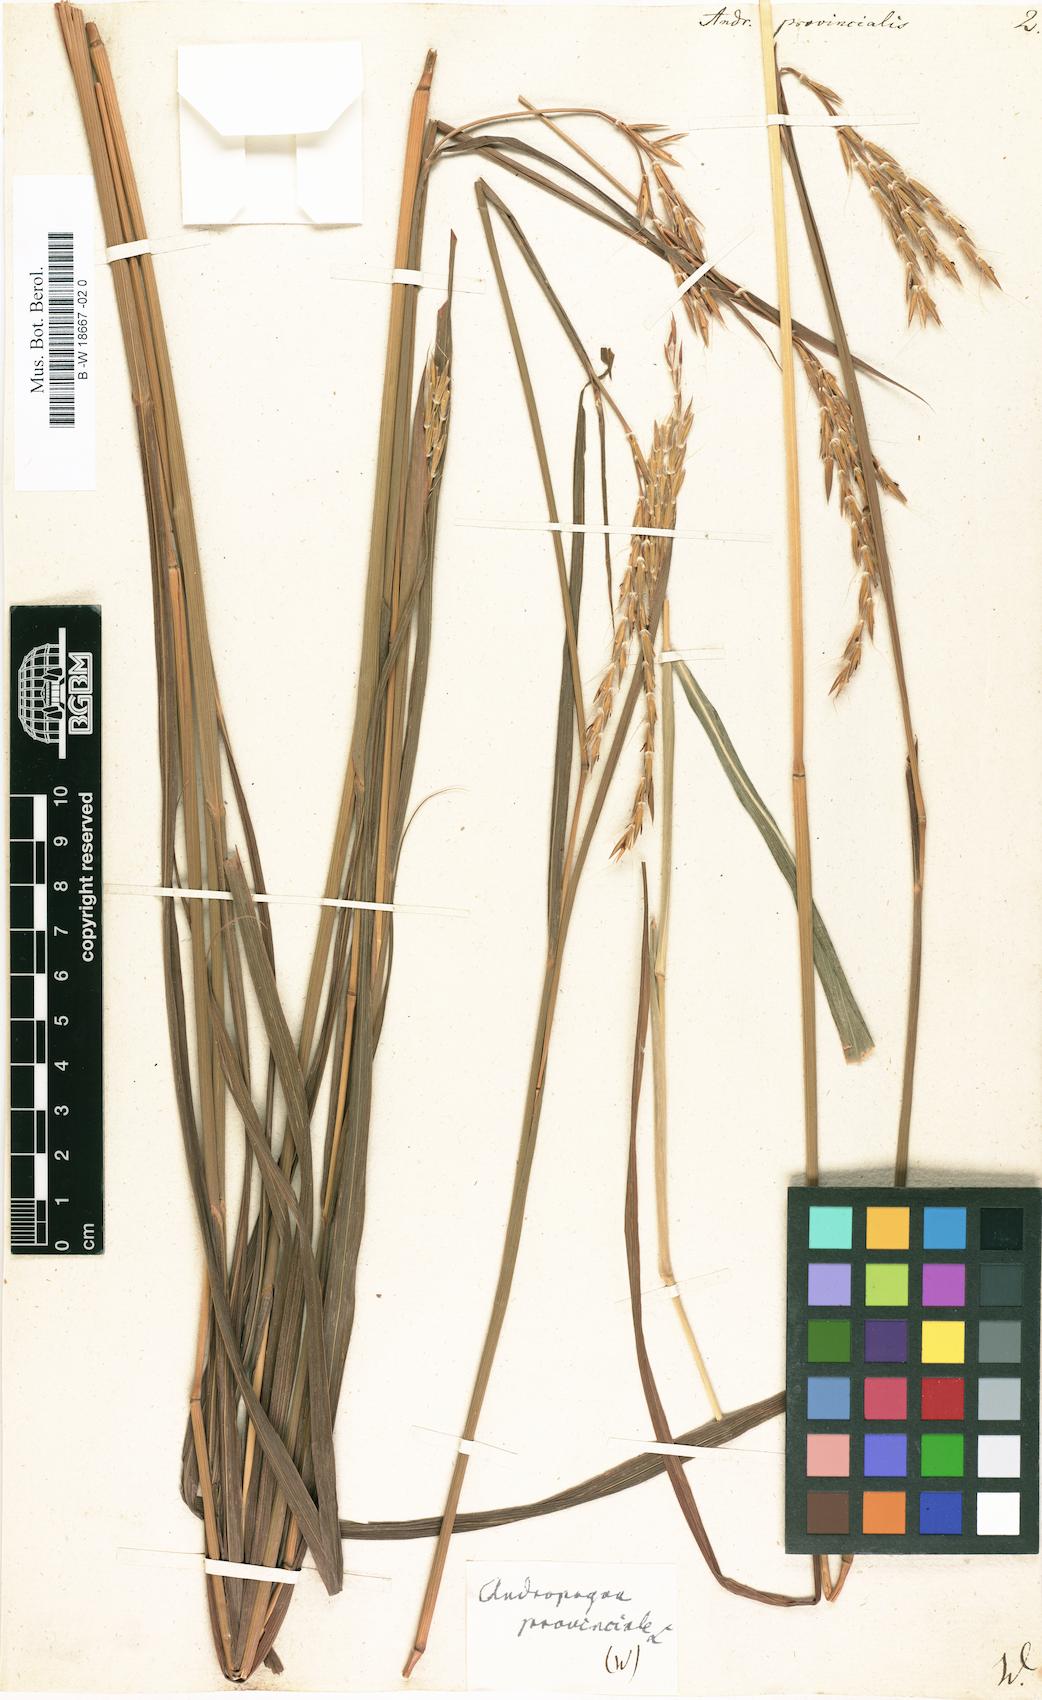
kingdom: Plantae
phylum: Tracheophyta
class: Liliopsida
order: Poales
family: Poaceae
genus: Andropogon
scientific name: Andropogon gerardi
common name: Big bluestem
